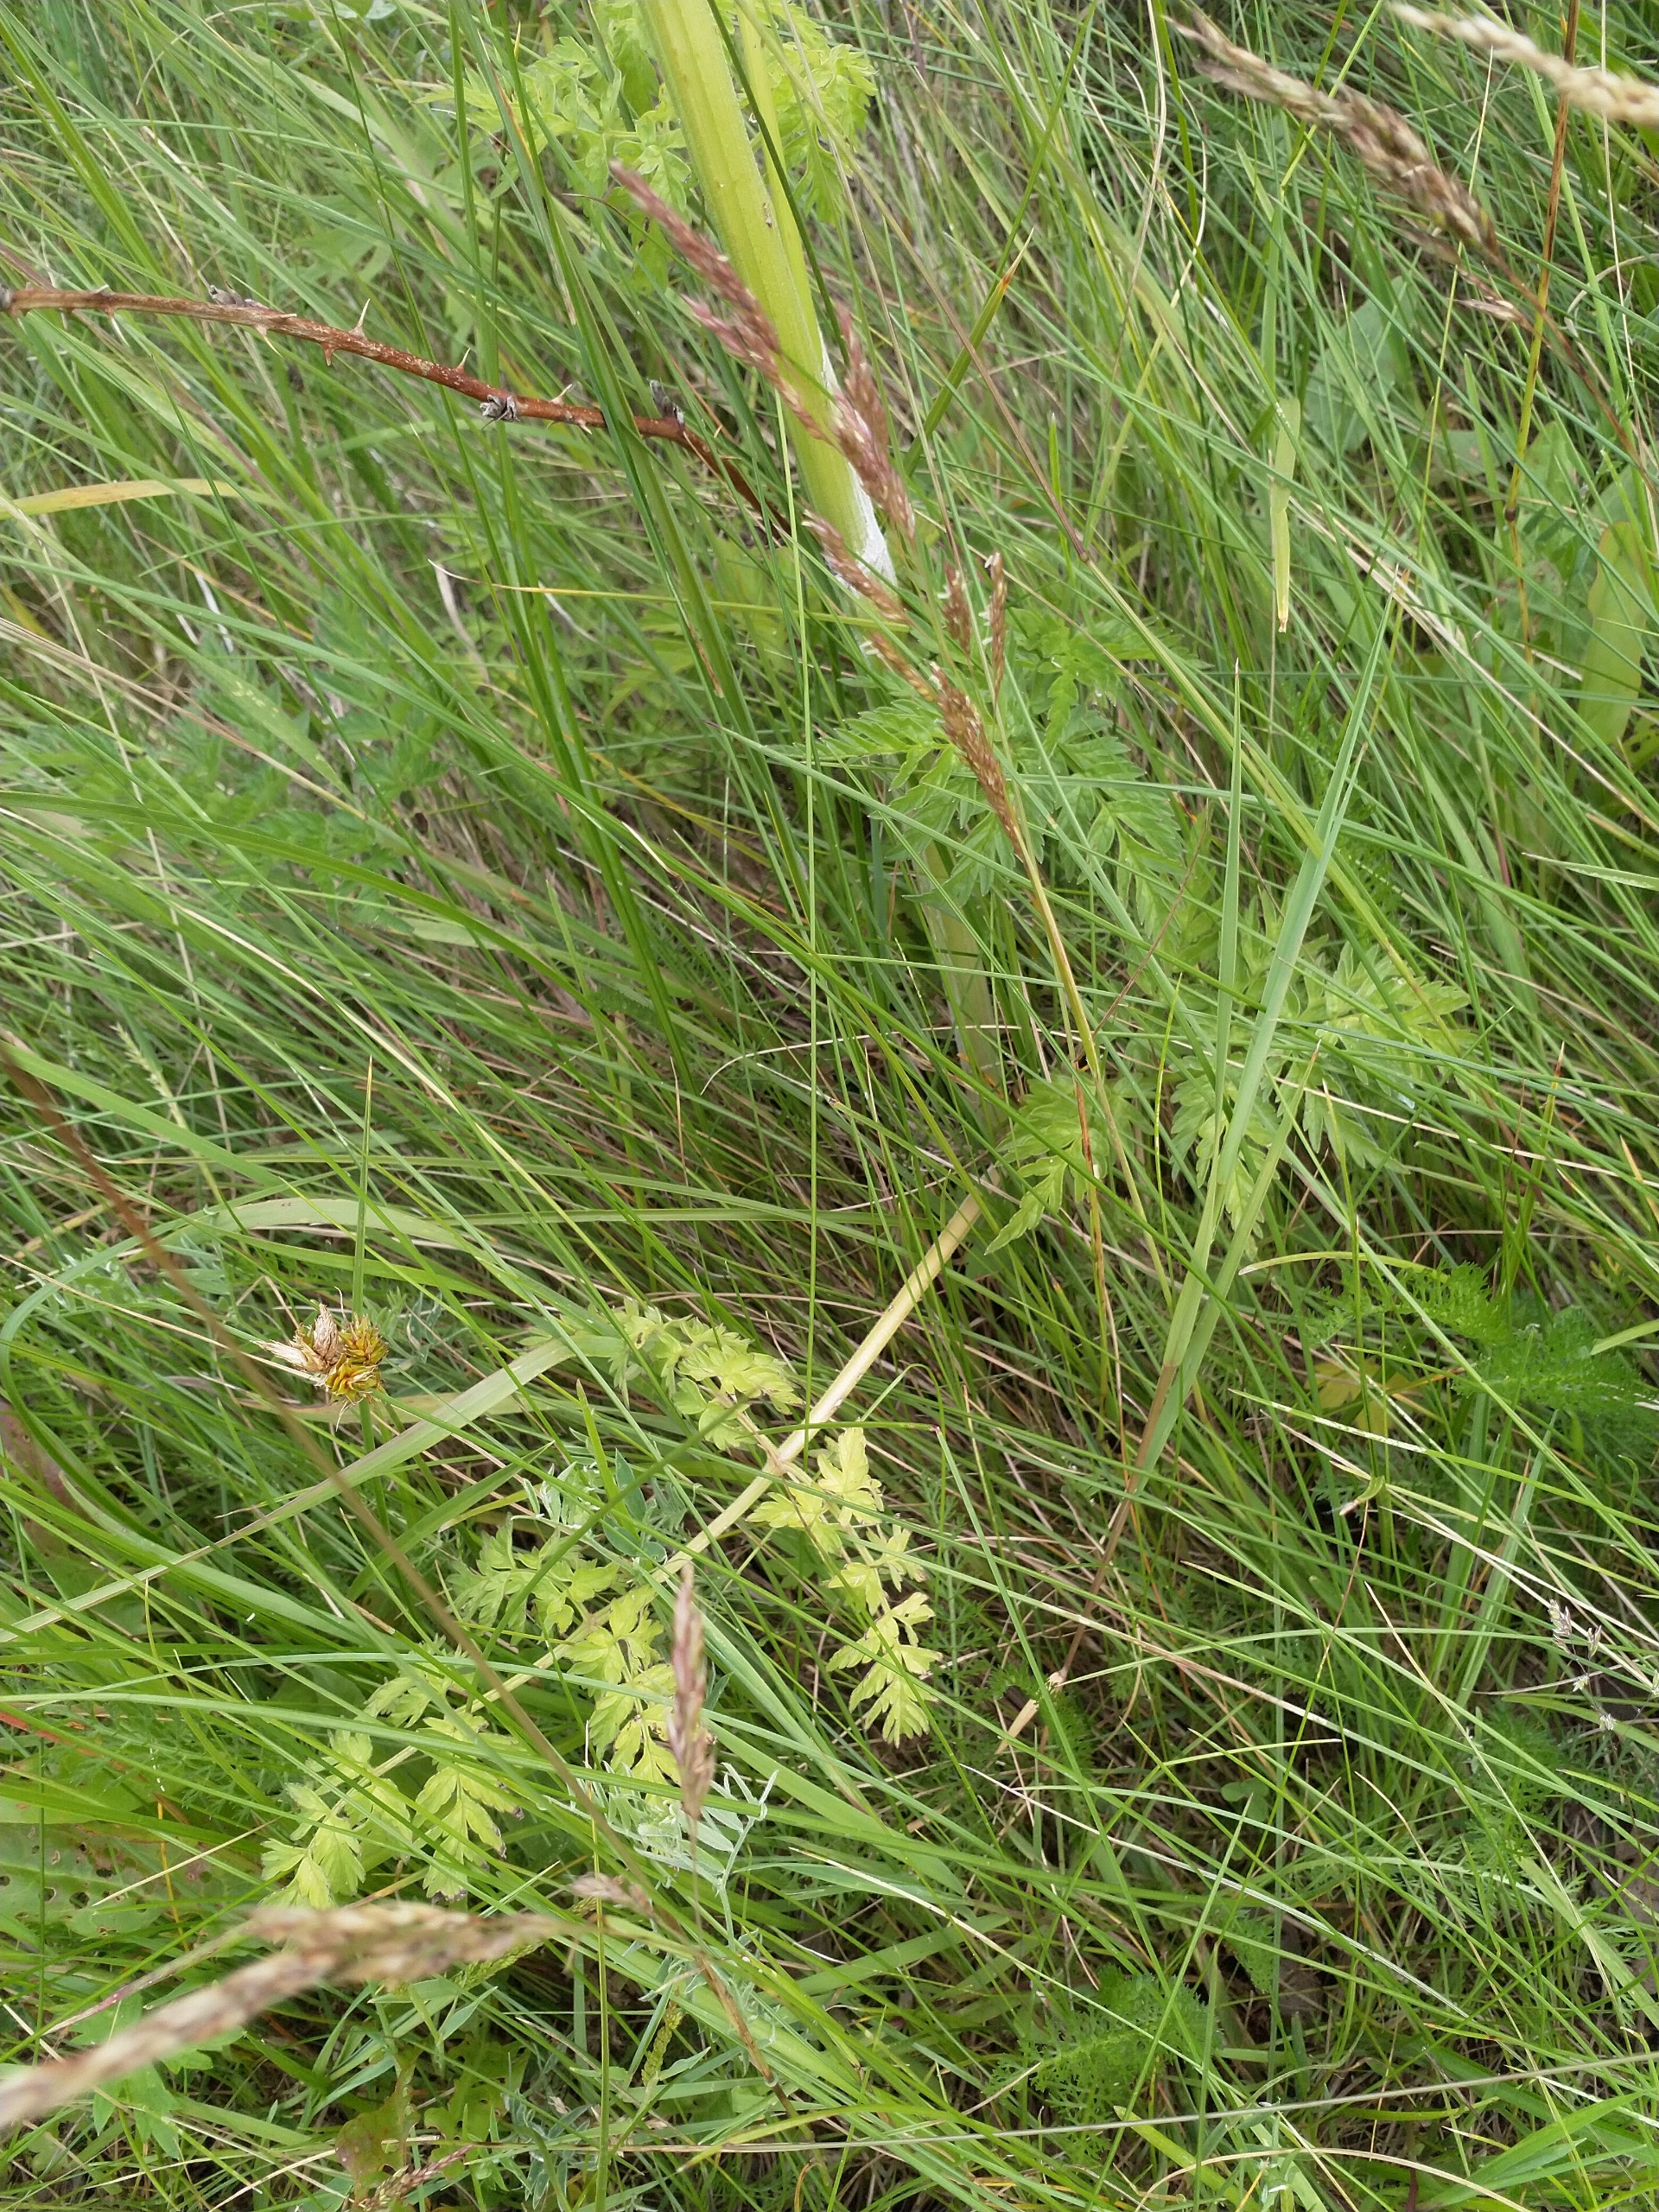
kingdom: Plantae
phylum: Tracheophyta
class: Magnoliopsida
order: Apiales
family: Apiaceae
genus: Anthriscus
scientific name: Anthriscus sylvestris
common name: Vild kørvel
